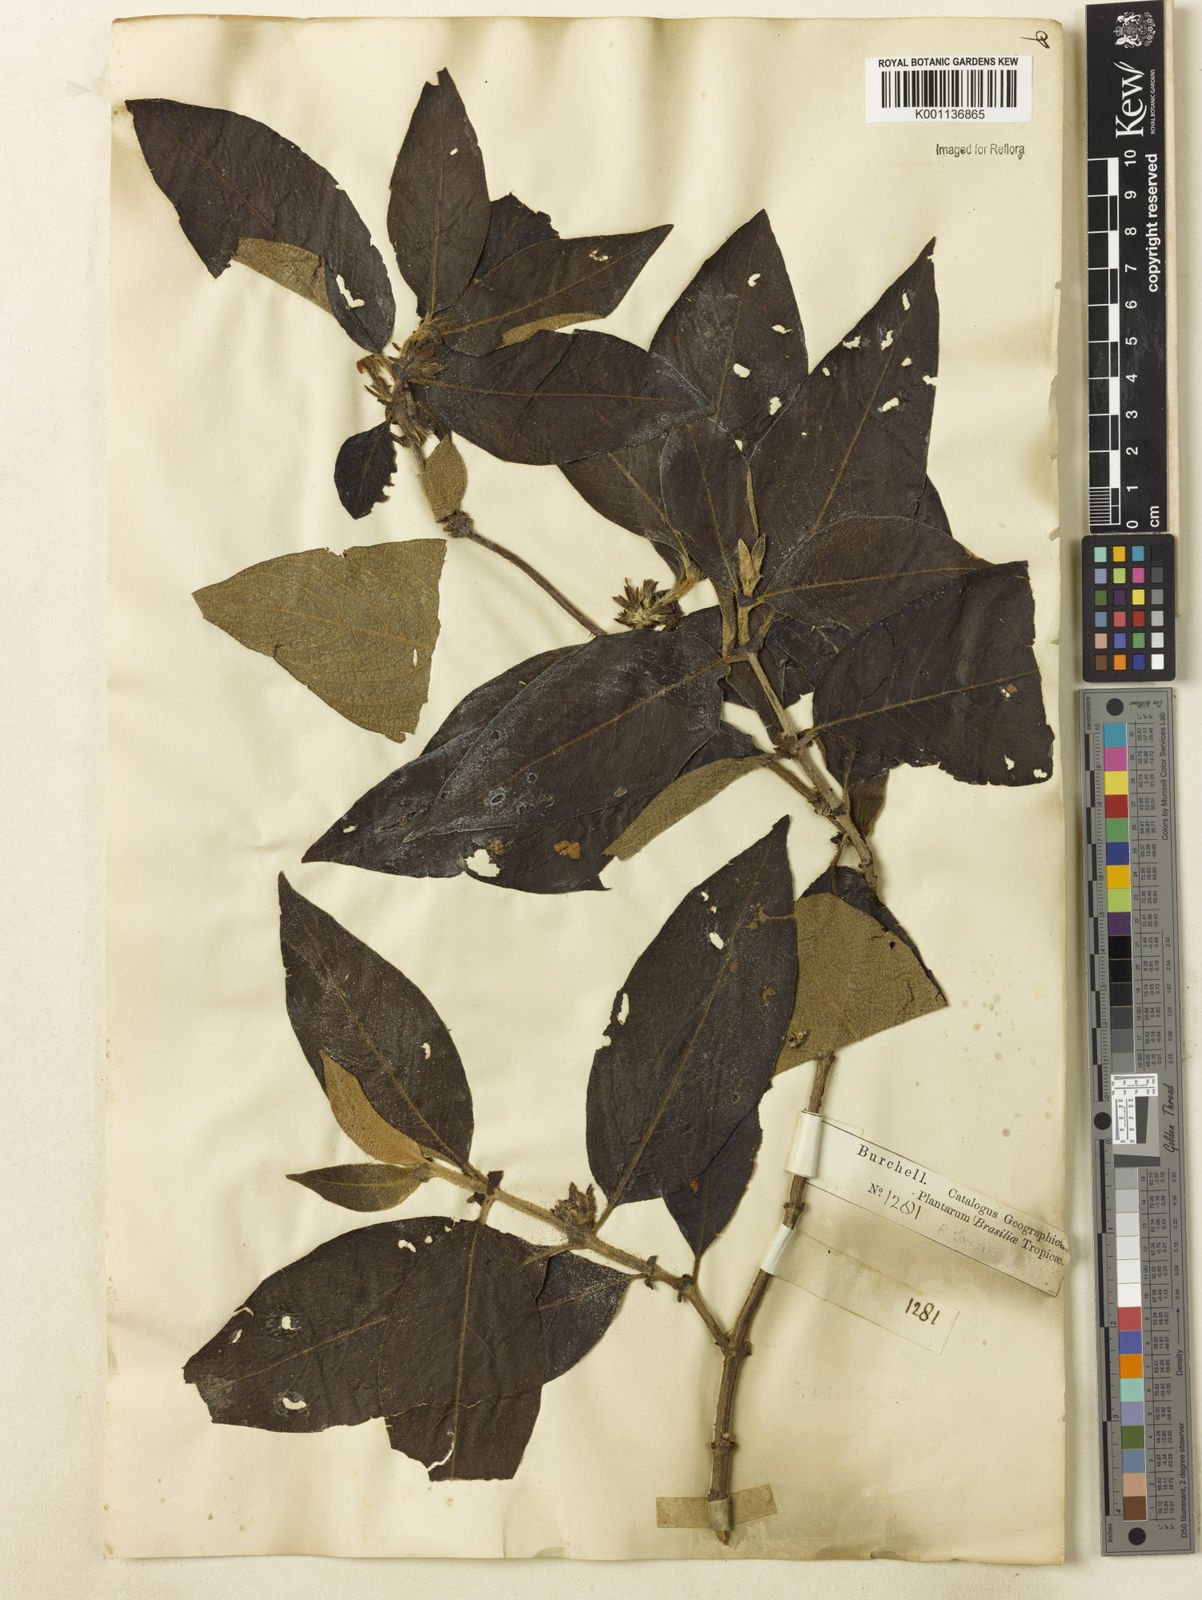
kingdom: Plantae
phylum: Tracheophyta
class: Magnoliopsida
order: Gentianales
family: Rubiaceae
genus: Sabicea
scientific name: Sabicea grisea
